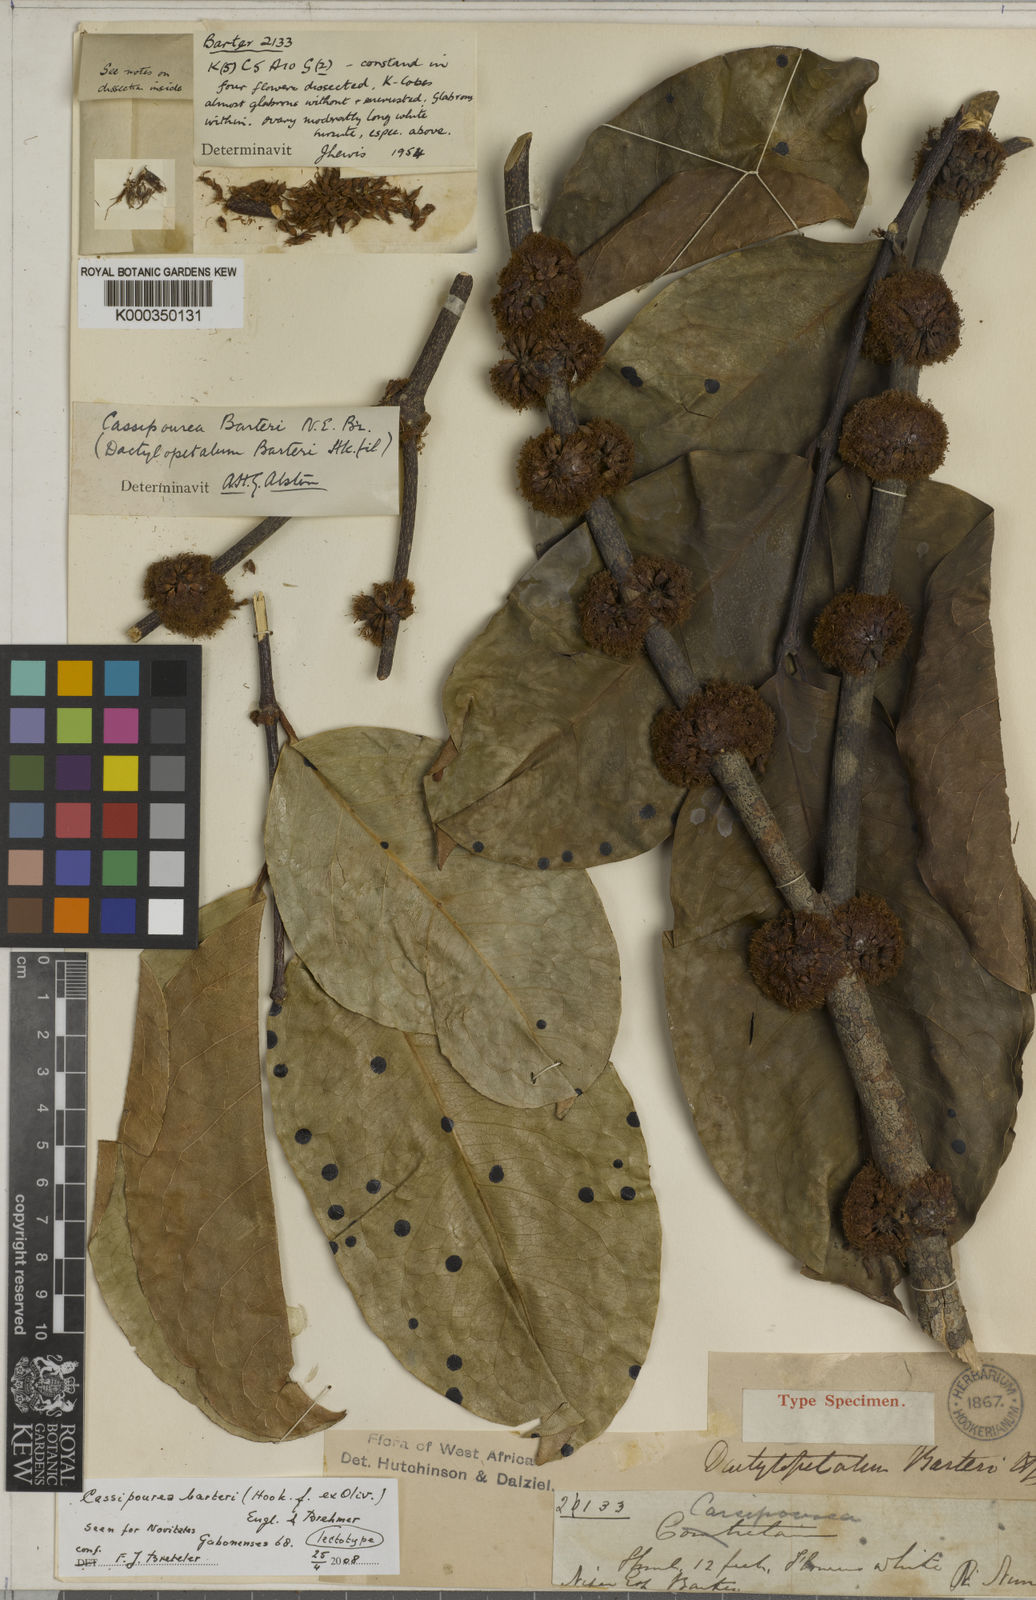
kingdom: Plantae
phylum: Tracheophyta
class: Magnoliopsida
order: Malpighiales
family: Rhizophoraceae
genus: Cassipourea
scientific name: Cassipourea
